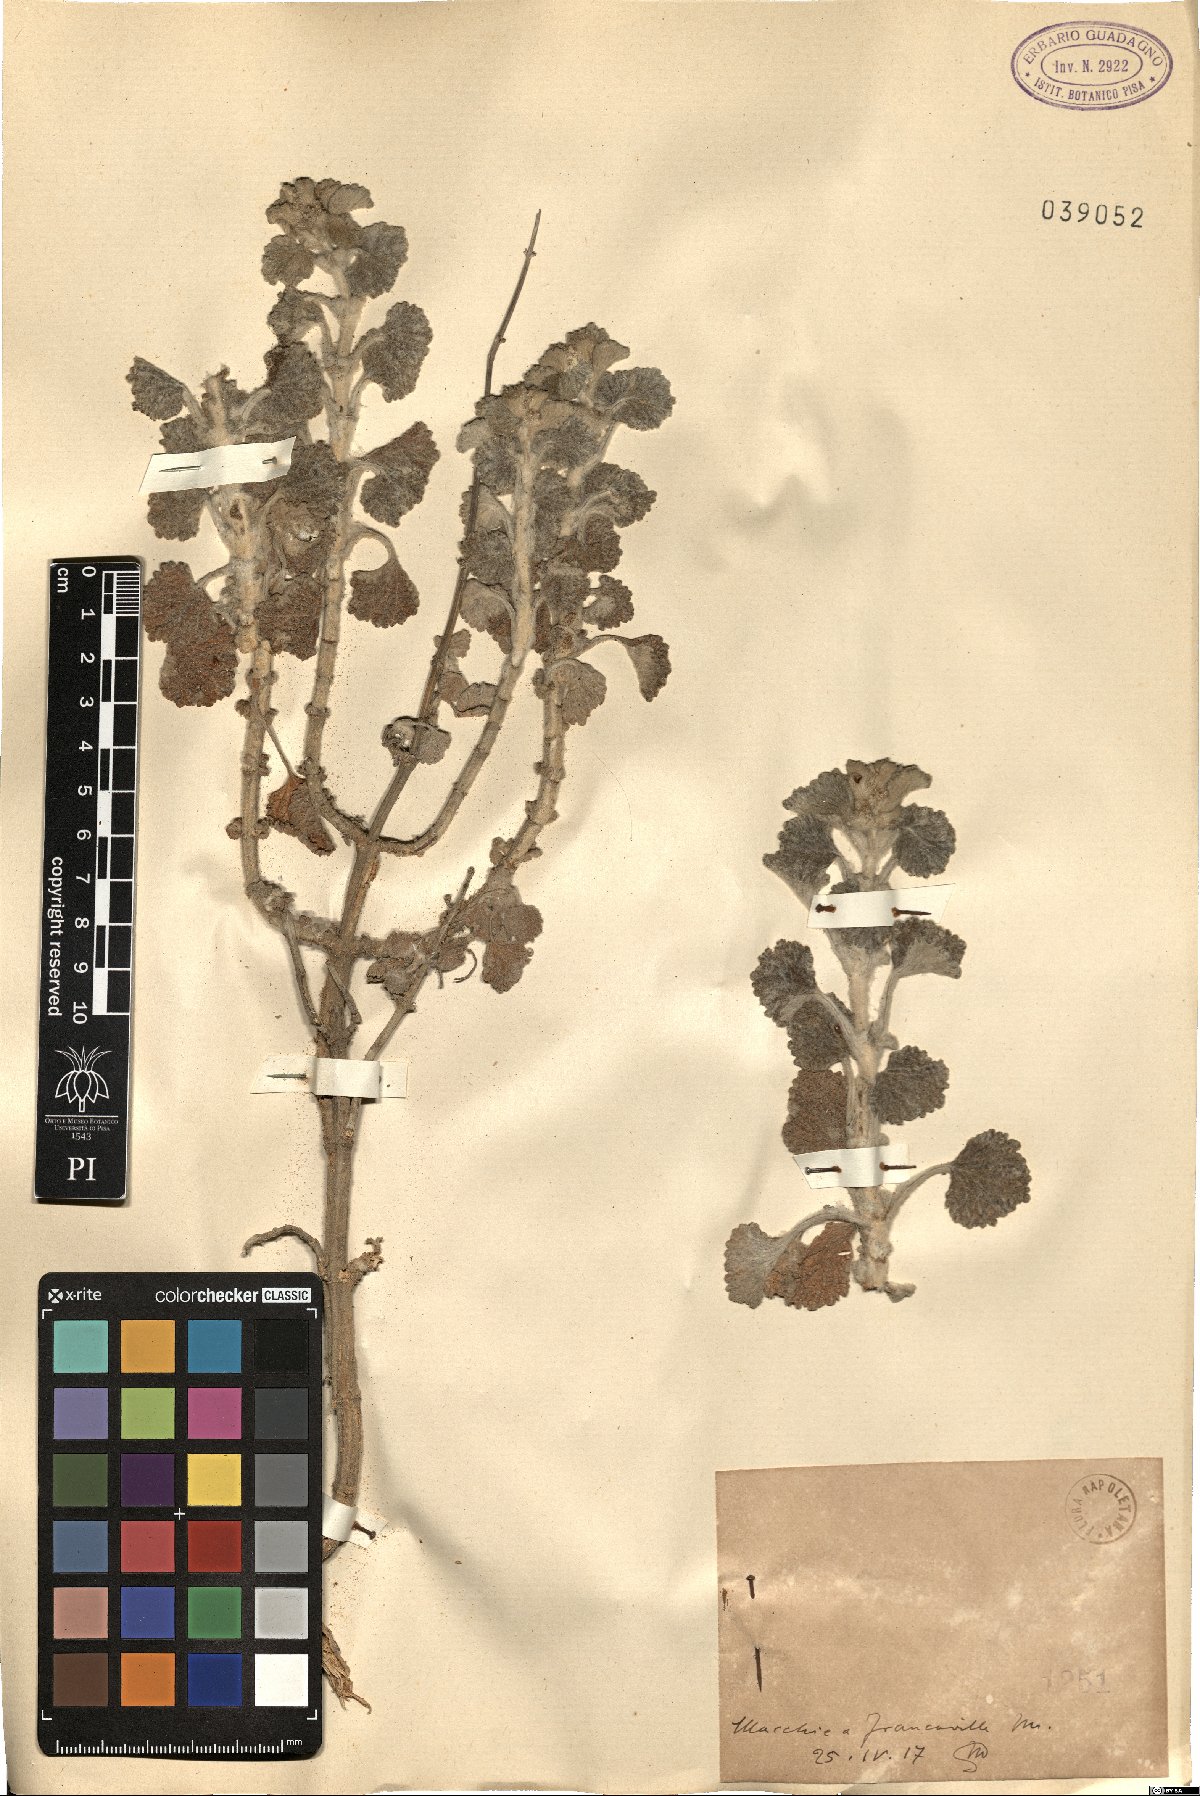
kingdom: Plantae
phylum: Tracheophyta
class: Magnoliopsida
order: Lamiales
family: Lamiaceae
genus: Marrubium
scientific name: Marrubium
